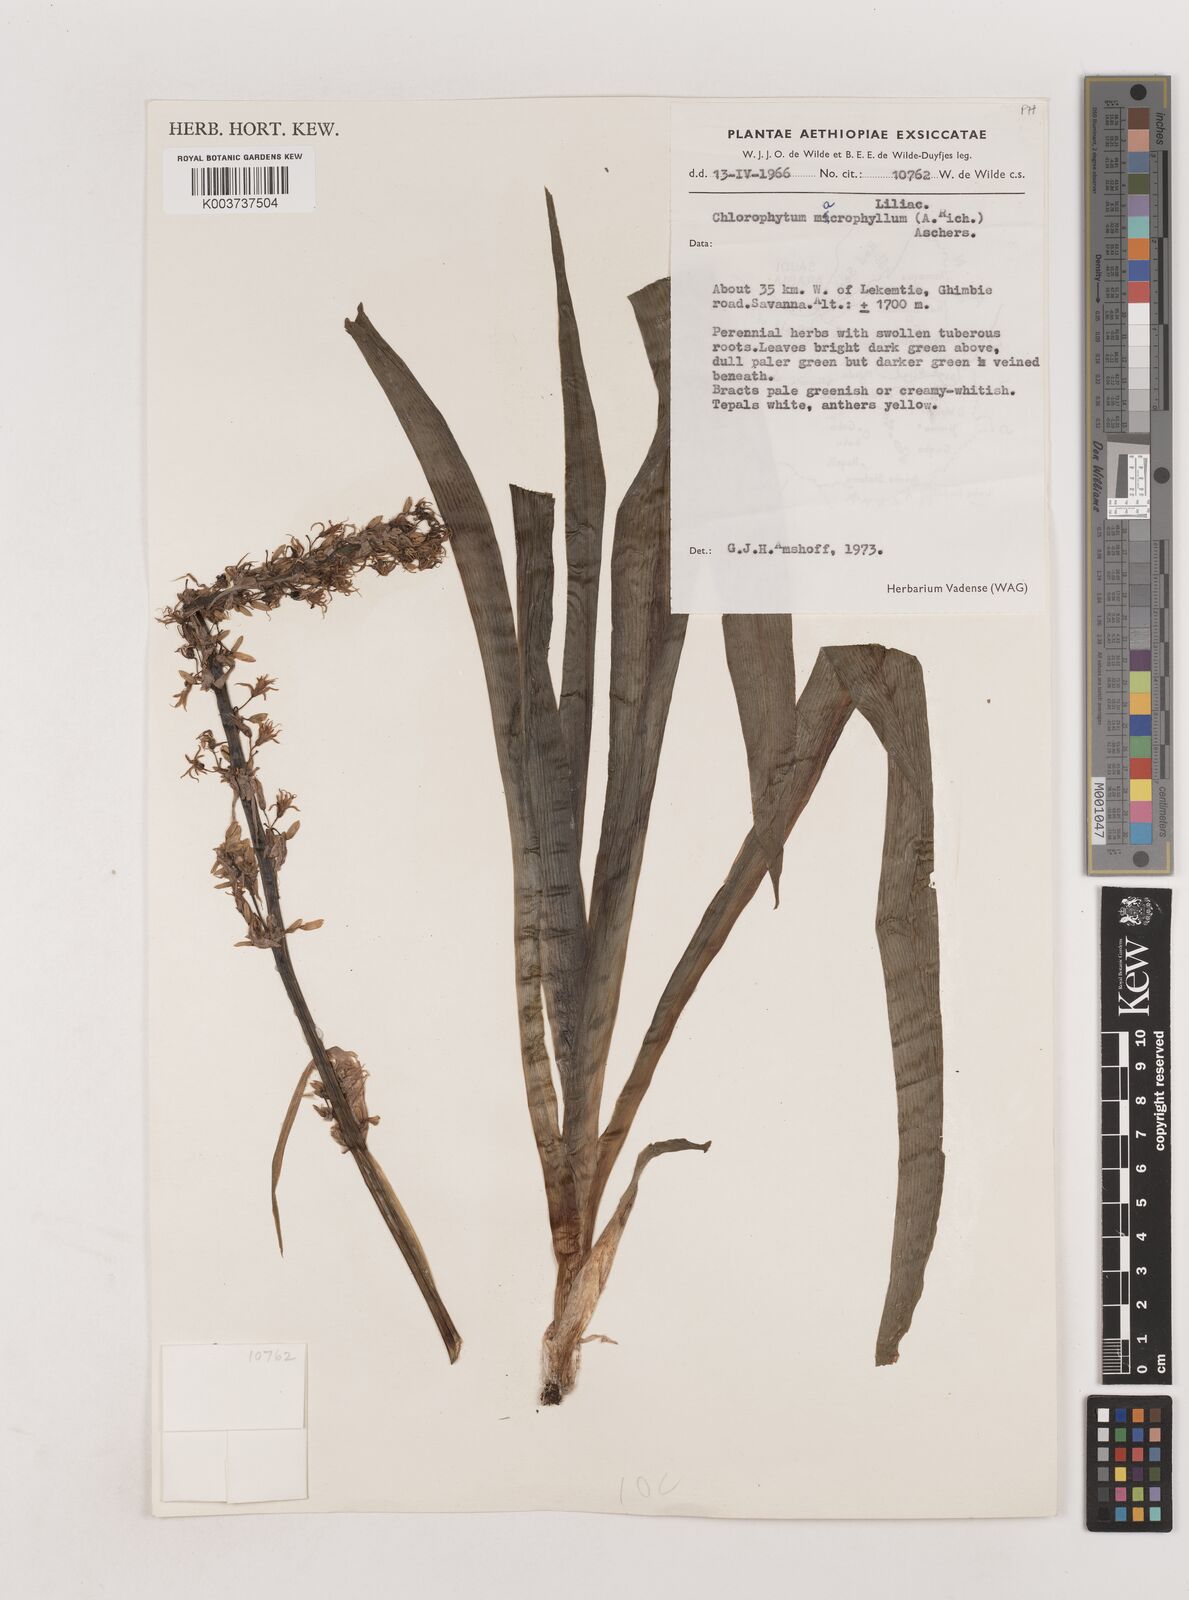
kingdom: Plantae
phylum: Tracheophyta
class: Liliopsida
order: Asparagales
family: Asparagaceae
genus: Chlorophytum
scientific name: Chlorophytum macrophyllum
